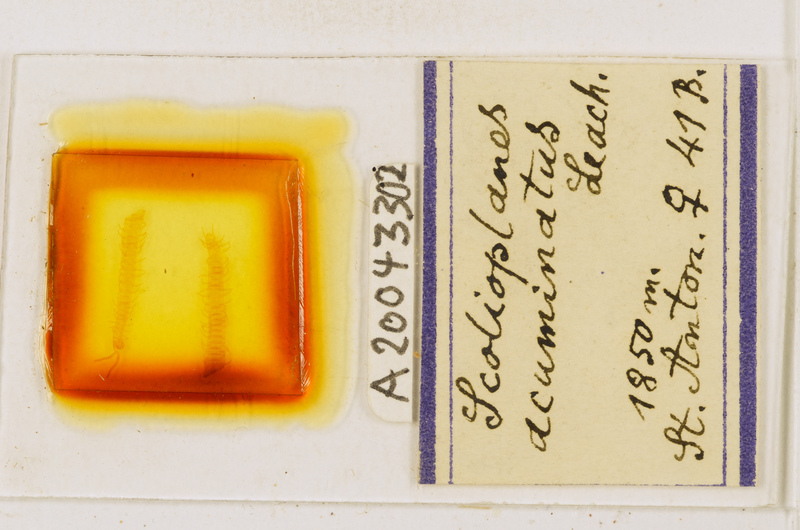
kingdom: Animalia
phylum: Arthropoda
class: Chilopoda
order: Geophilomorpha
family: Linotaeniidae
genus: Strigamia
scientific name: Strigamia acuminata
